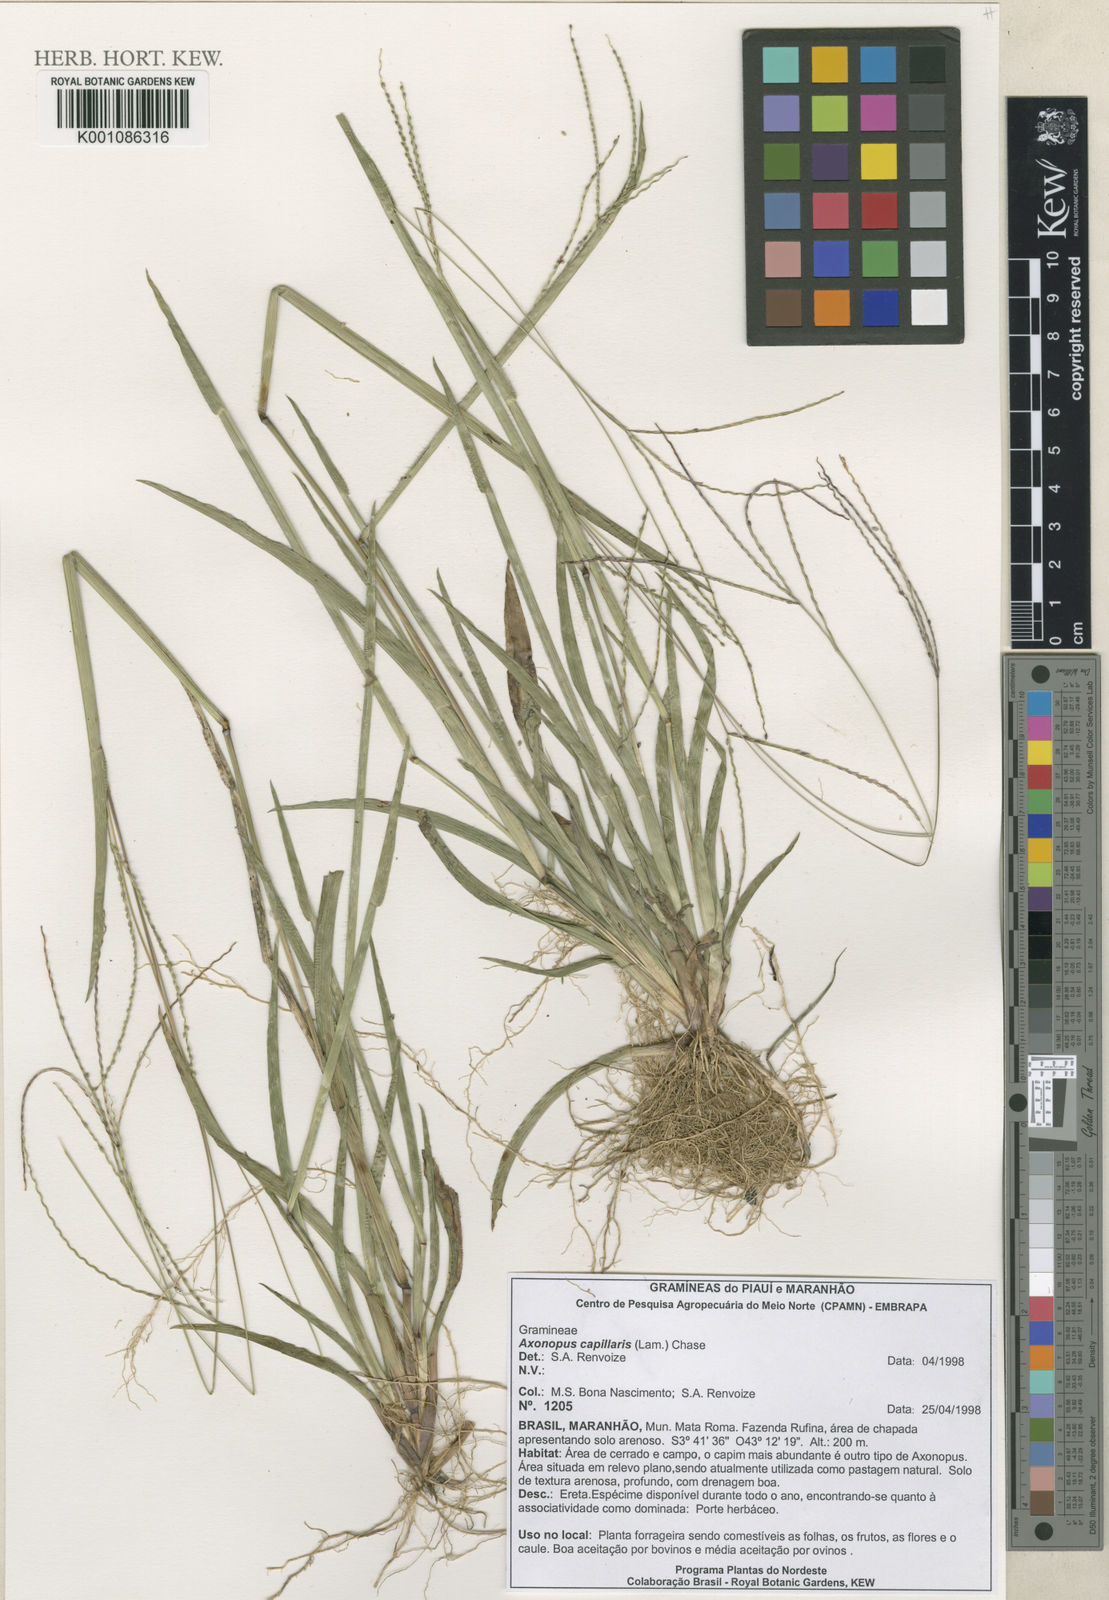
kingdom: Plantae
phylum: Tracheophyta
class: Liliopsida
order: Poales
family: Poaceae
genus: Axonopus
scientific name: Axonopus capillaris
